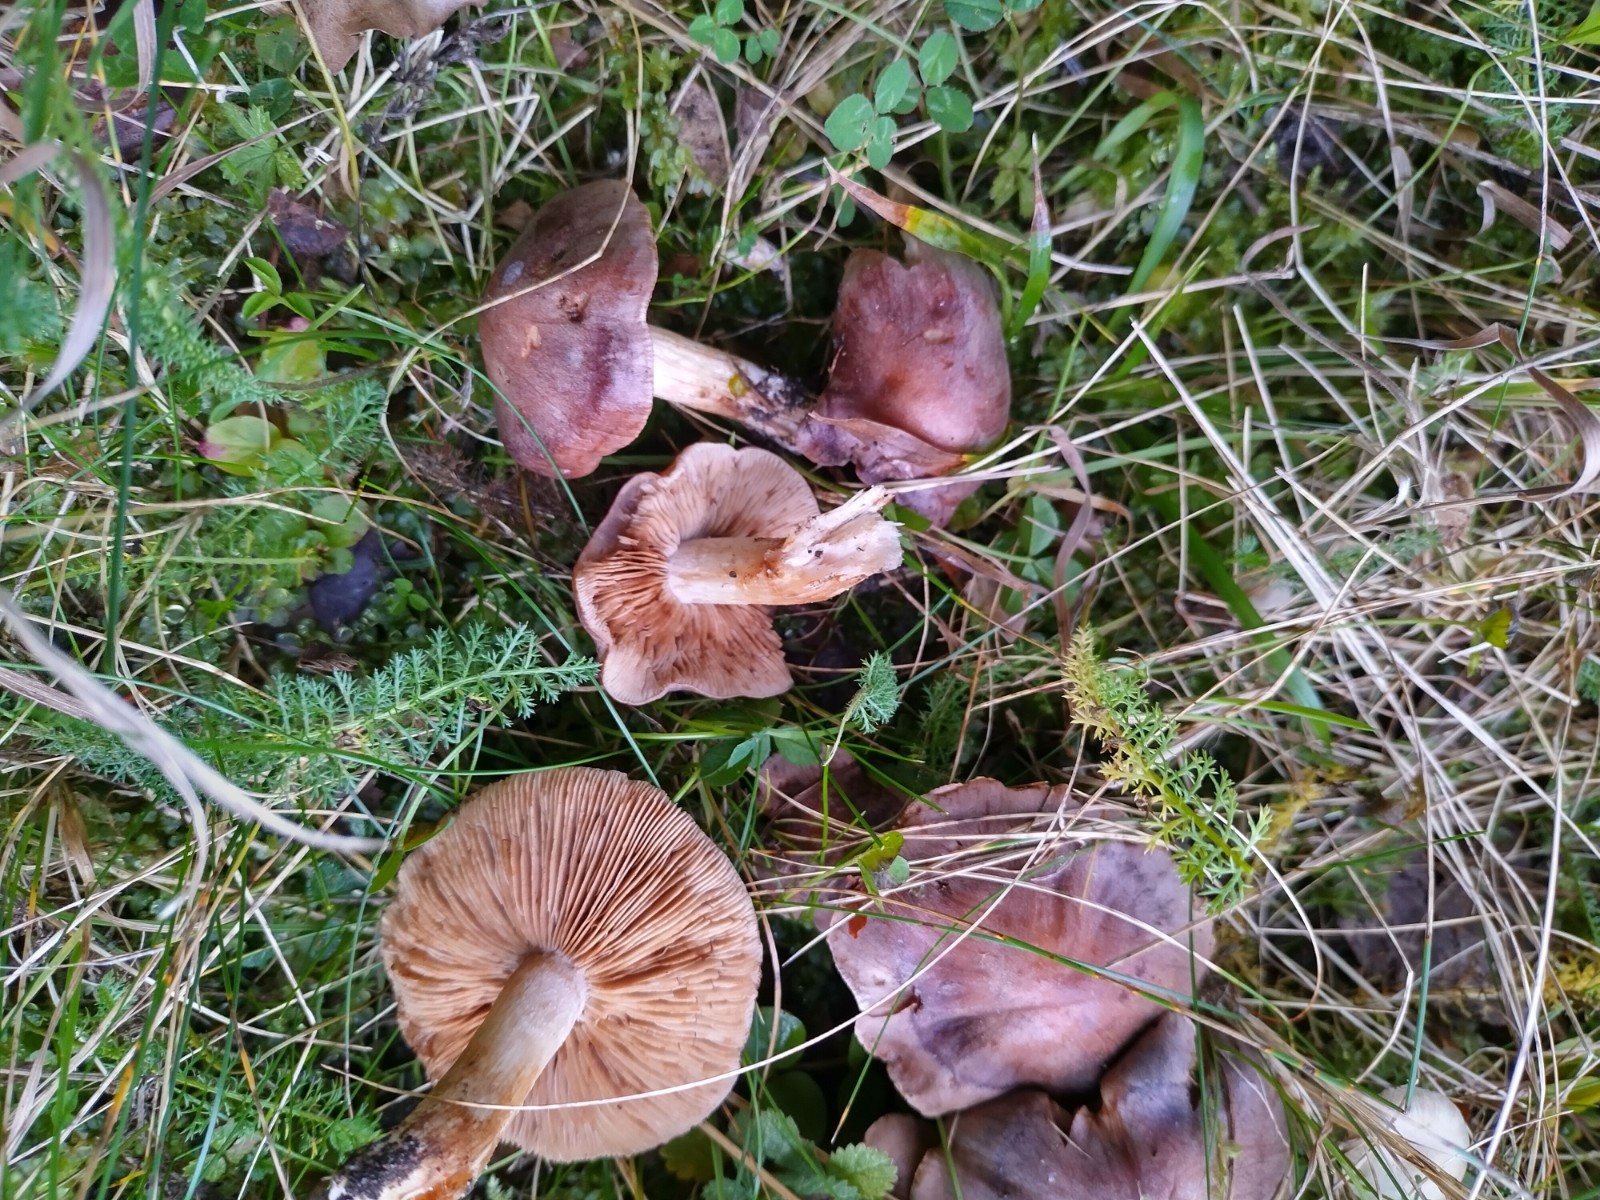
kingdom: Fungi
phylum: Basidiomycota
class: Agaricomycetes
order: Agaricales
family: Hymenogastraceae
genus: Hebeloma
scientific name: Hebeloma theobrominum
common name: rødbrun tåreblad
